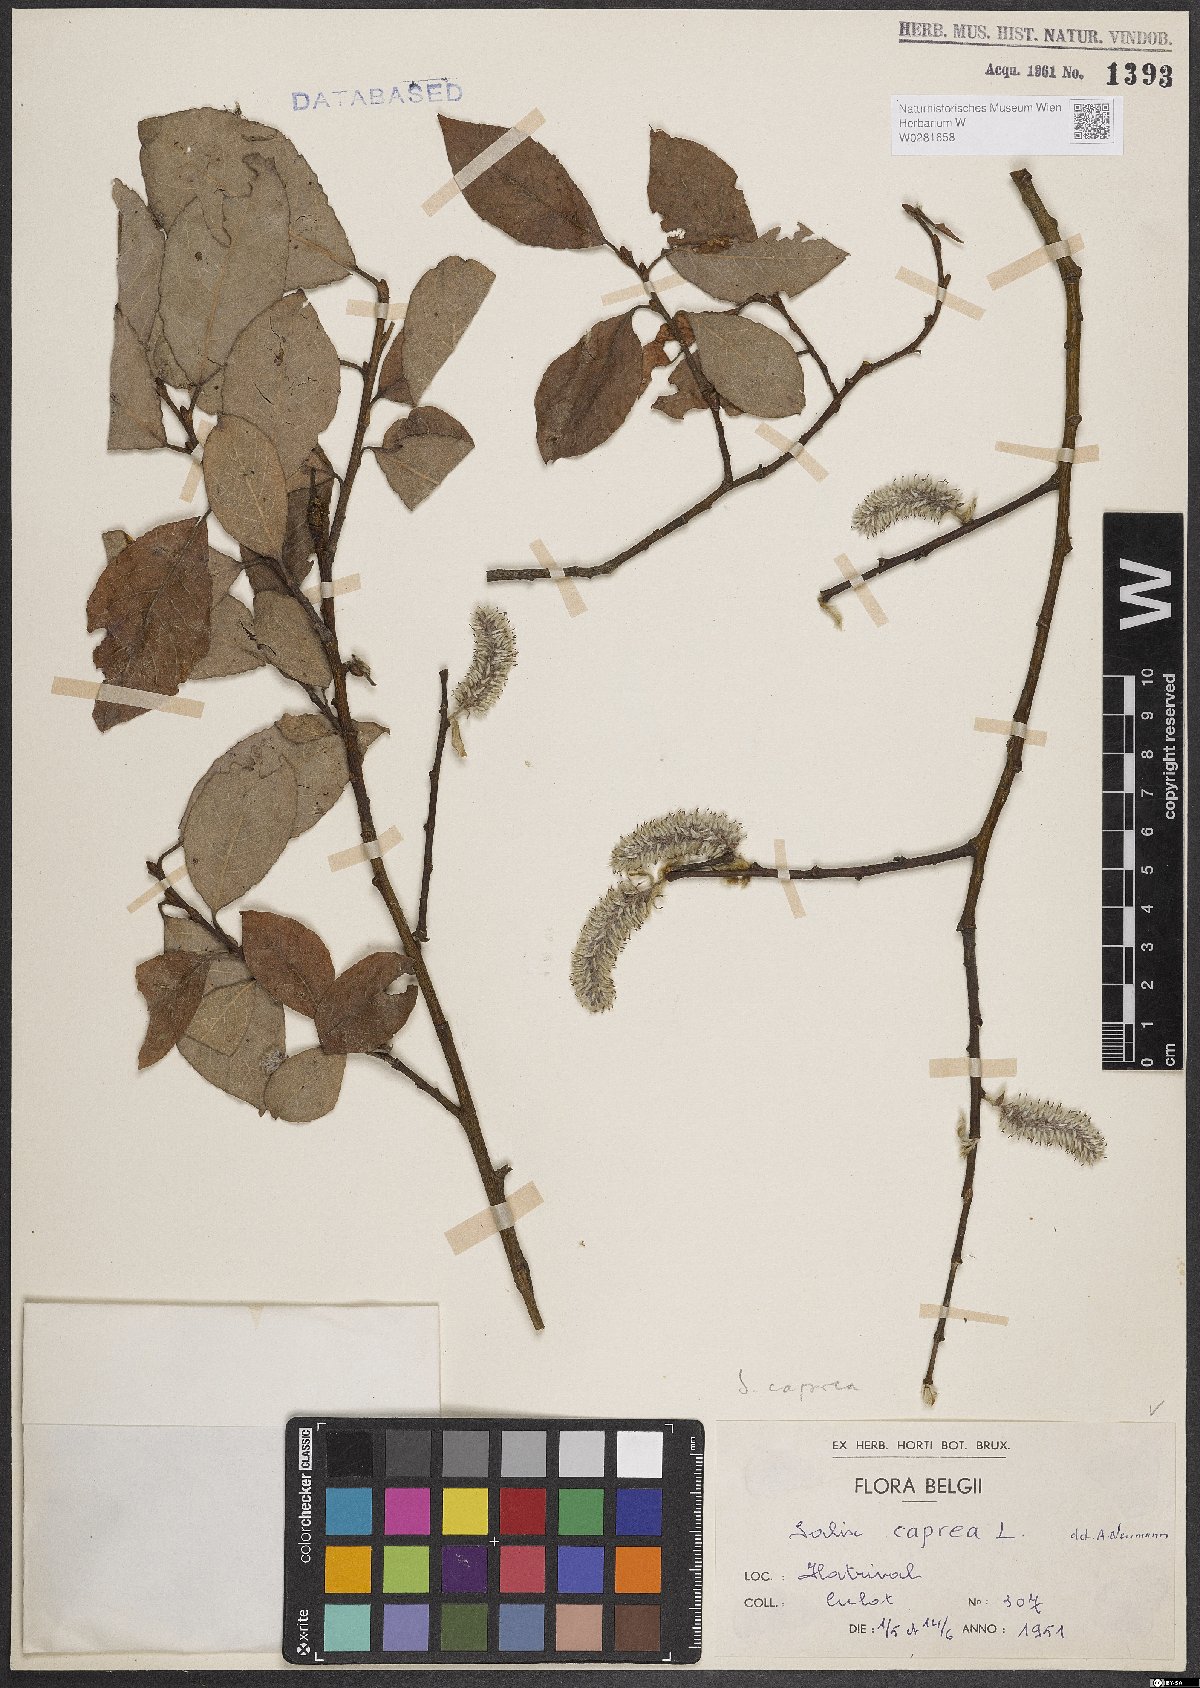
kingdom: Plantae
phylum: Tracheophyta
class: Magnoliopsida
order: Malpighiales
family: Salicaceae
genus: Salix
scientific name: Salix caprea
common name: Goat willow
